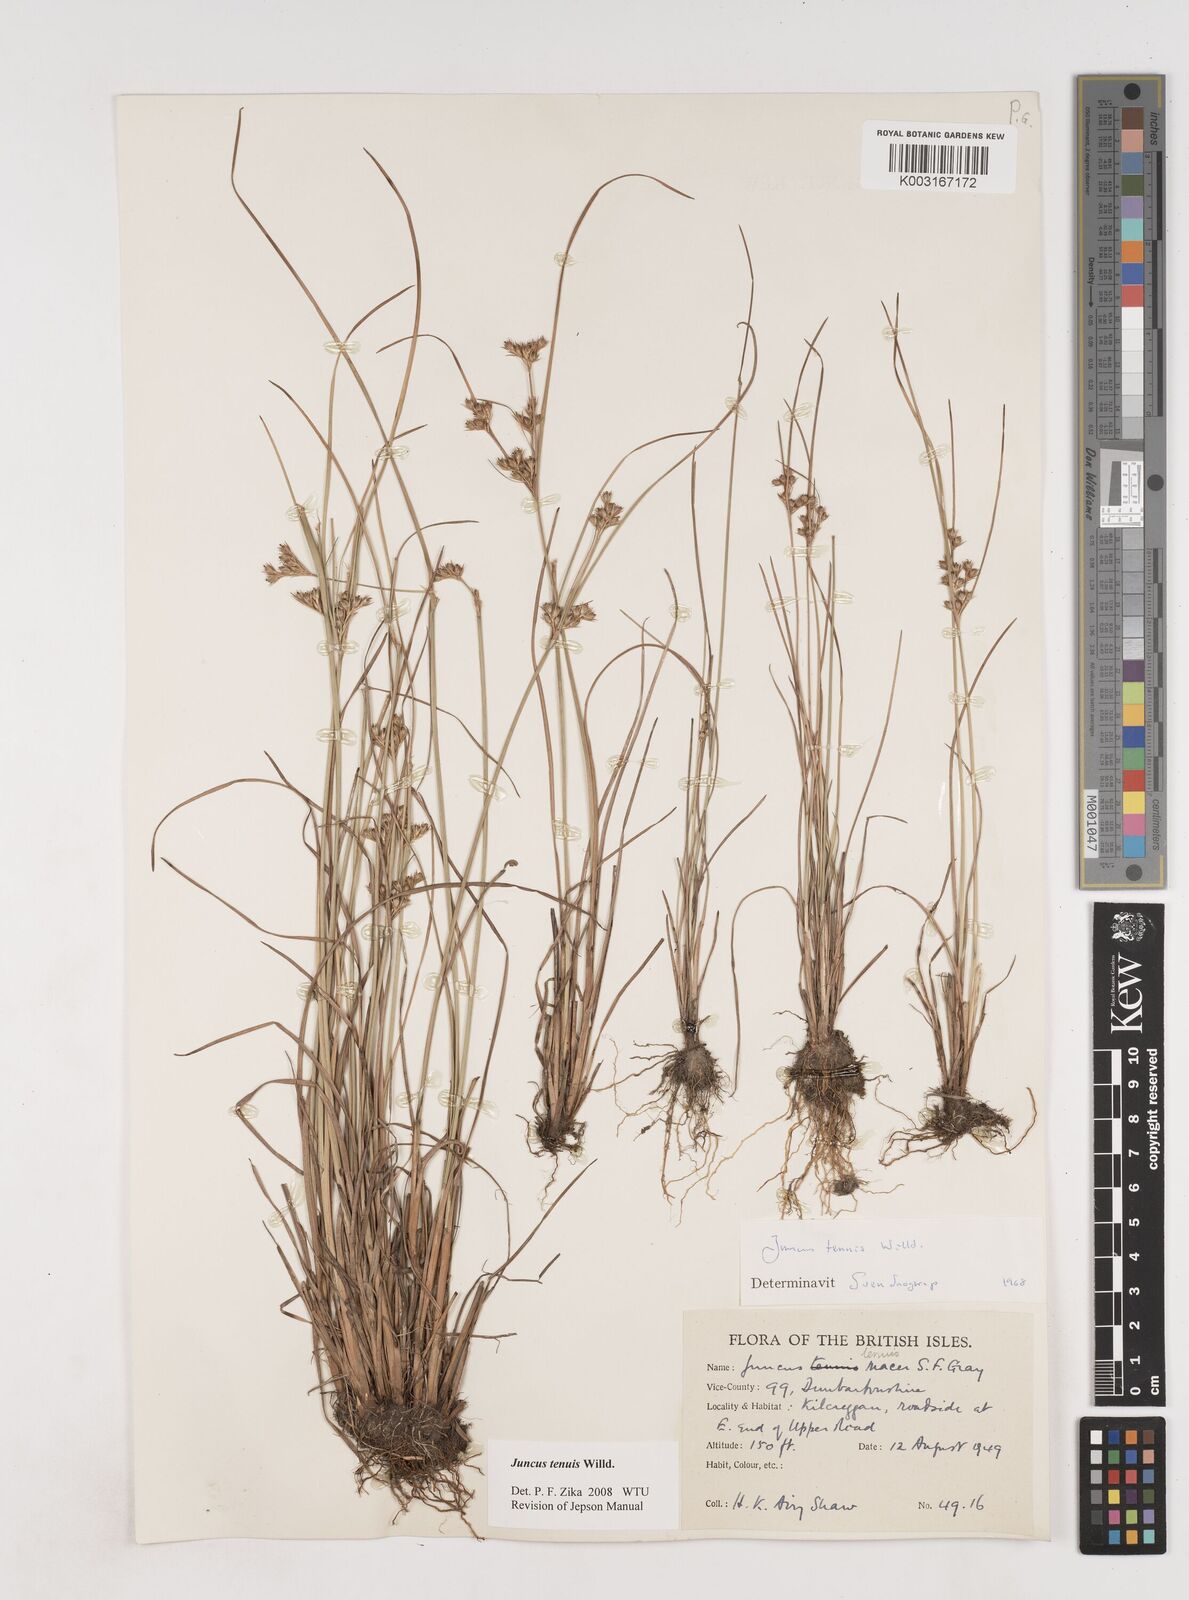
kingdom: Plantae
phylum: Tracheophyta
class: Liliopsida
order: Poales
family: Juncaceae
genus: Juncus
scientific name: Juncus tenuis
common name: Slender rush
